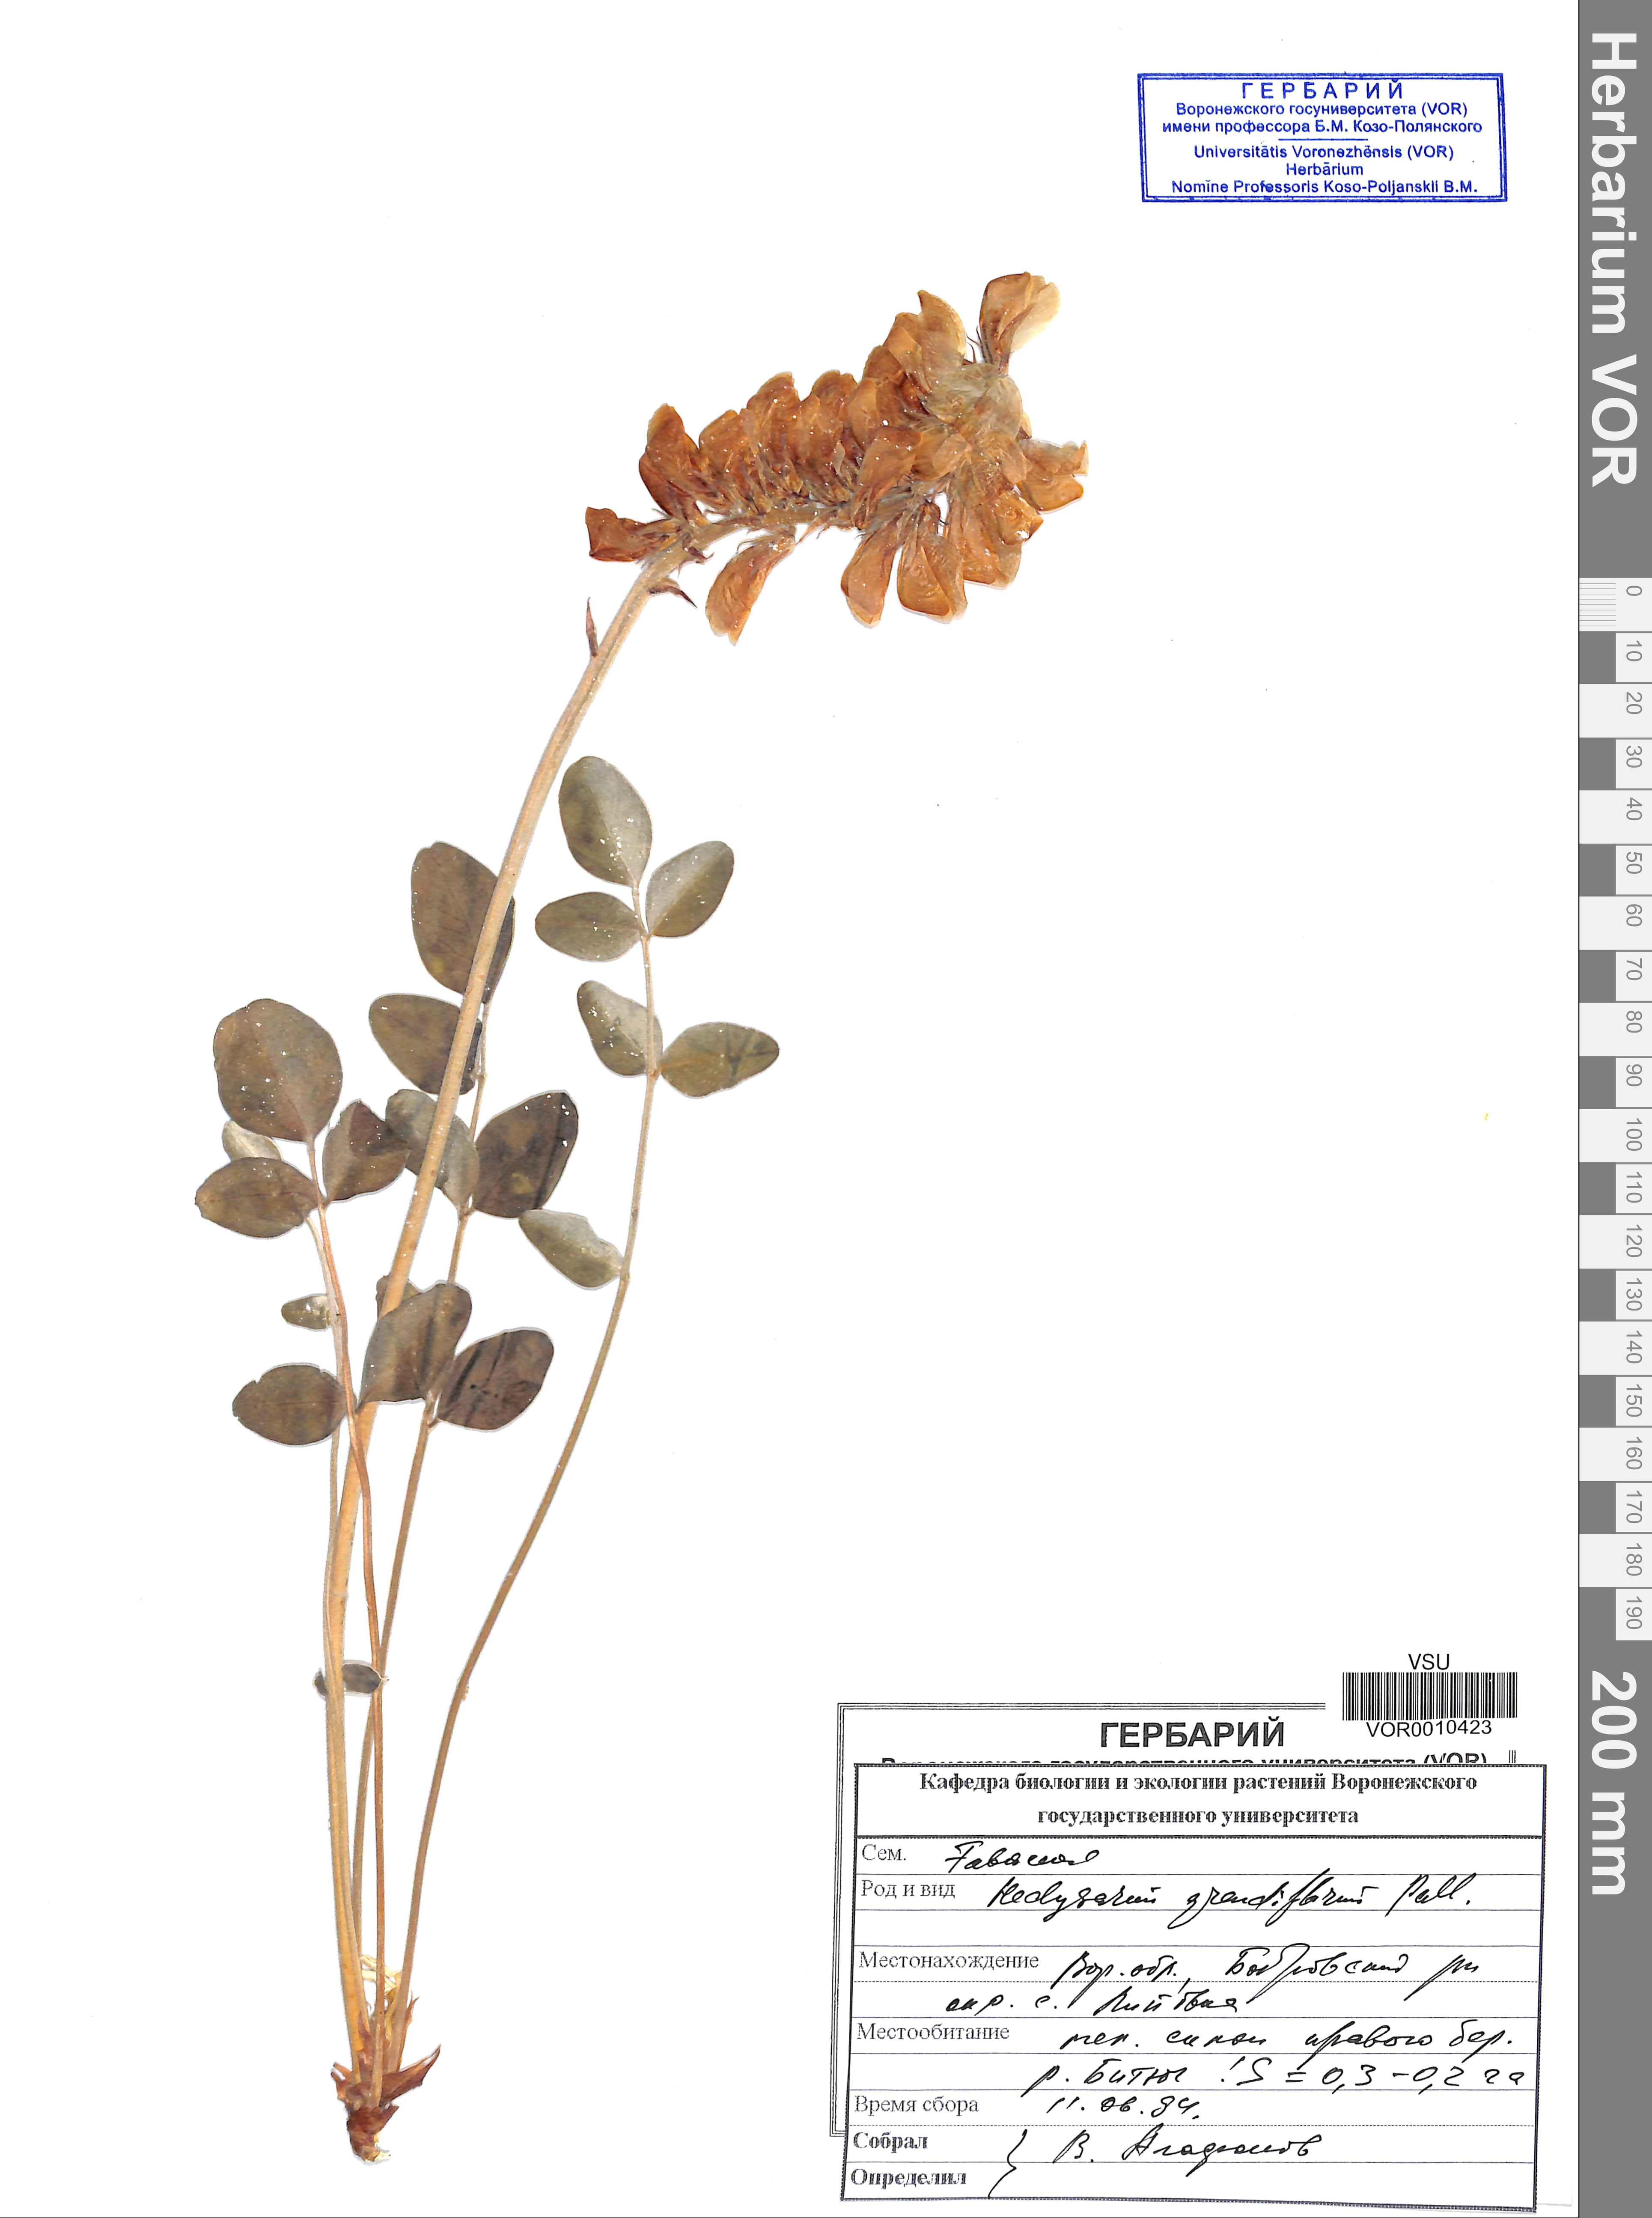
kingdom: Plantae
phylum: Tracheophyta
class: Magnoliopsida
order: Fabales
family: Fabaceae
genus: Hedysarum
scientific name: Hedysarum grandiflorum
